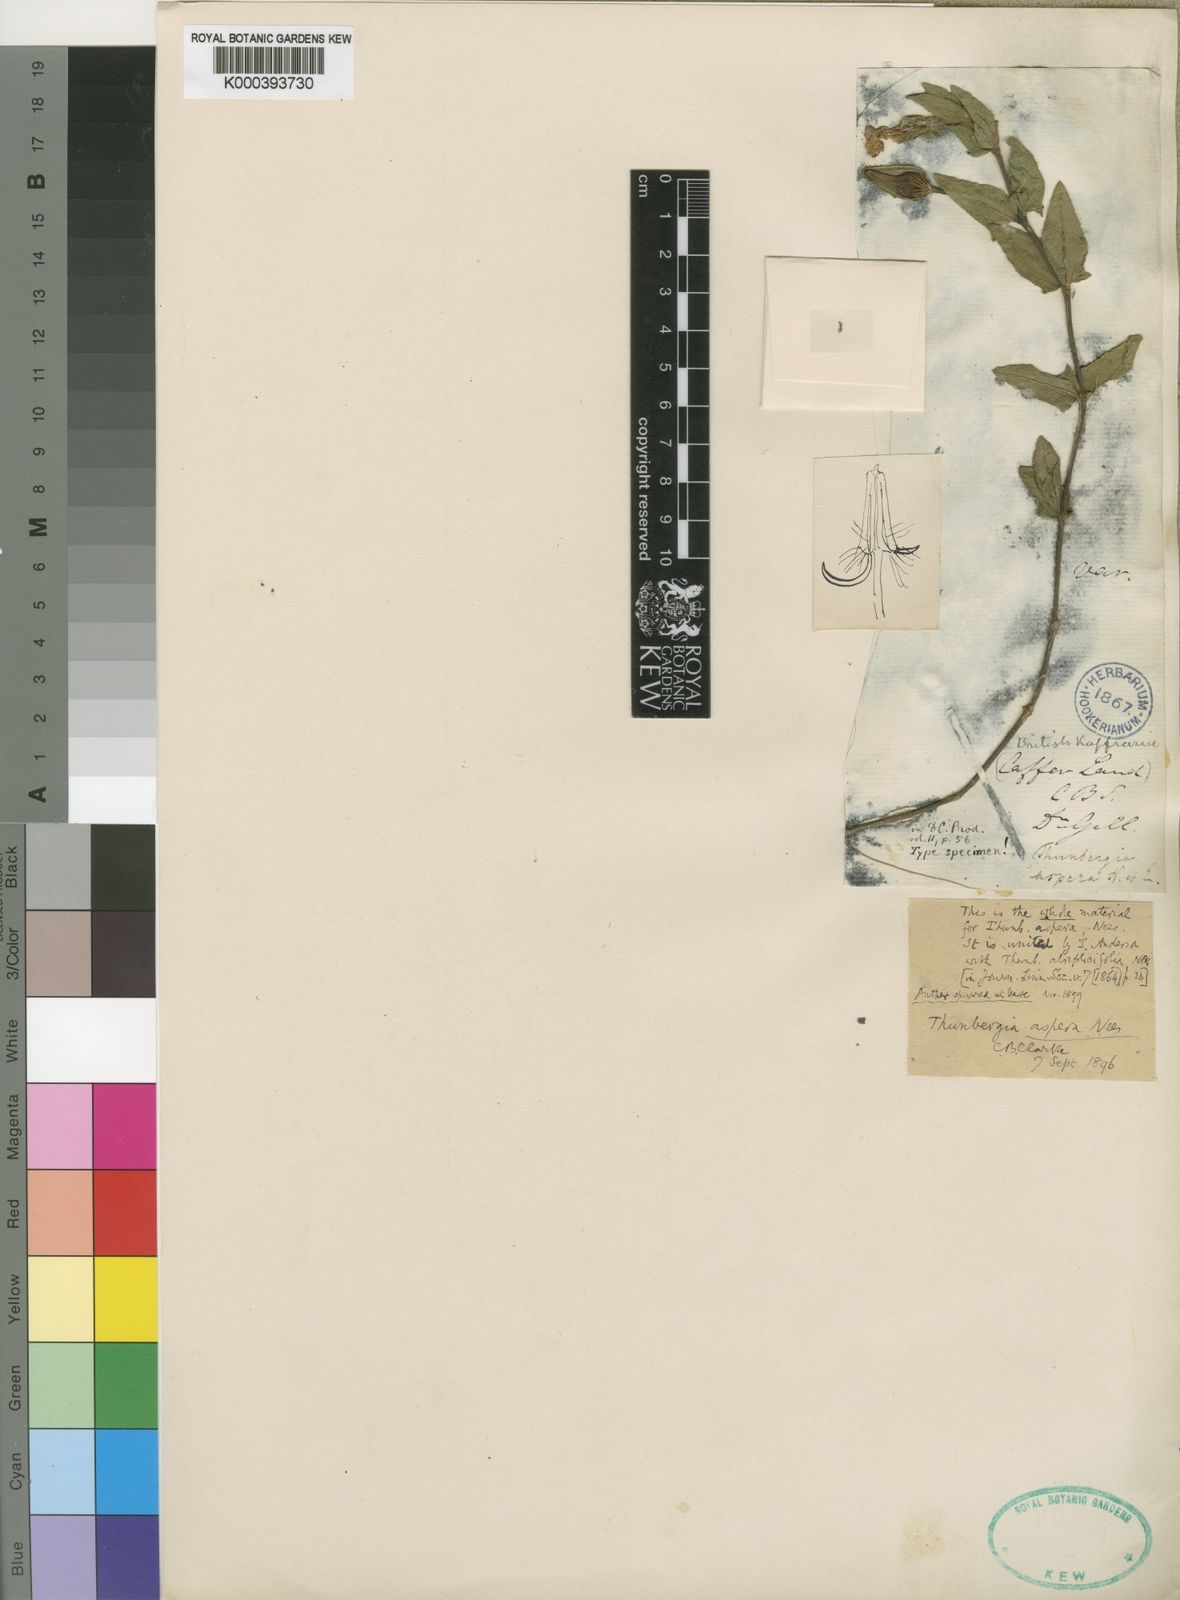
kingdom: Plantae
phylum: Tracheophyta
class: Magnoliopsida
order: Lamiales
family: Acanthaceae
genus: Thunbergia
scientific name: Thunbergia atriplicifolia
